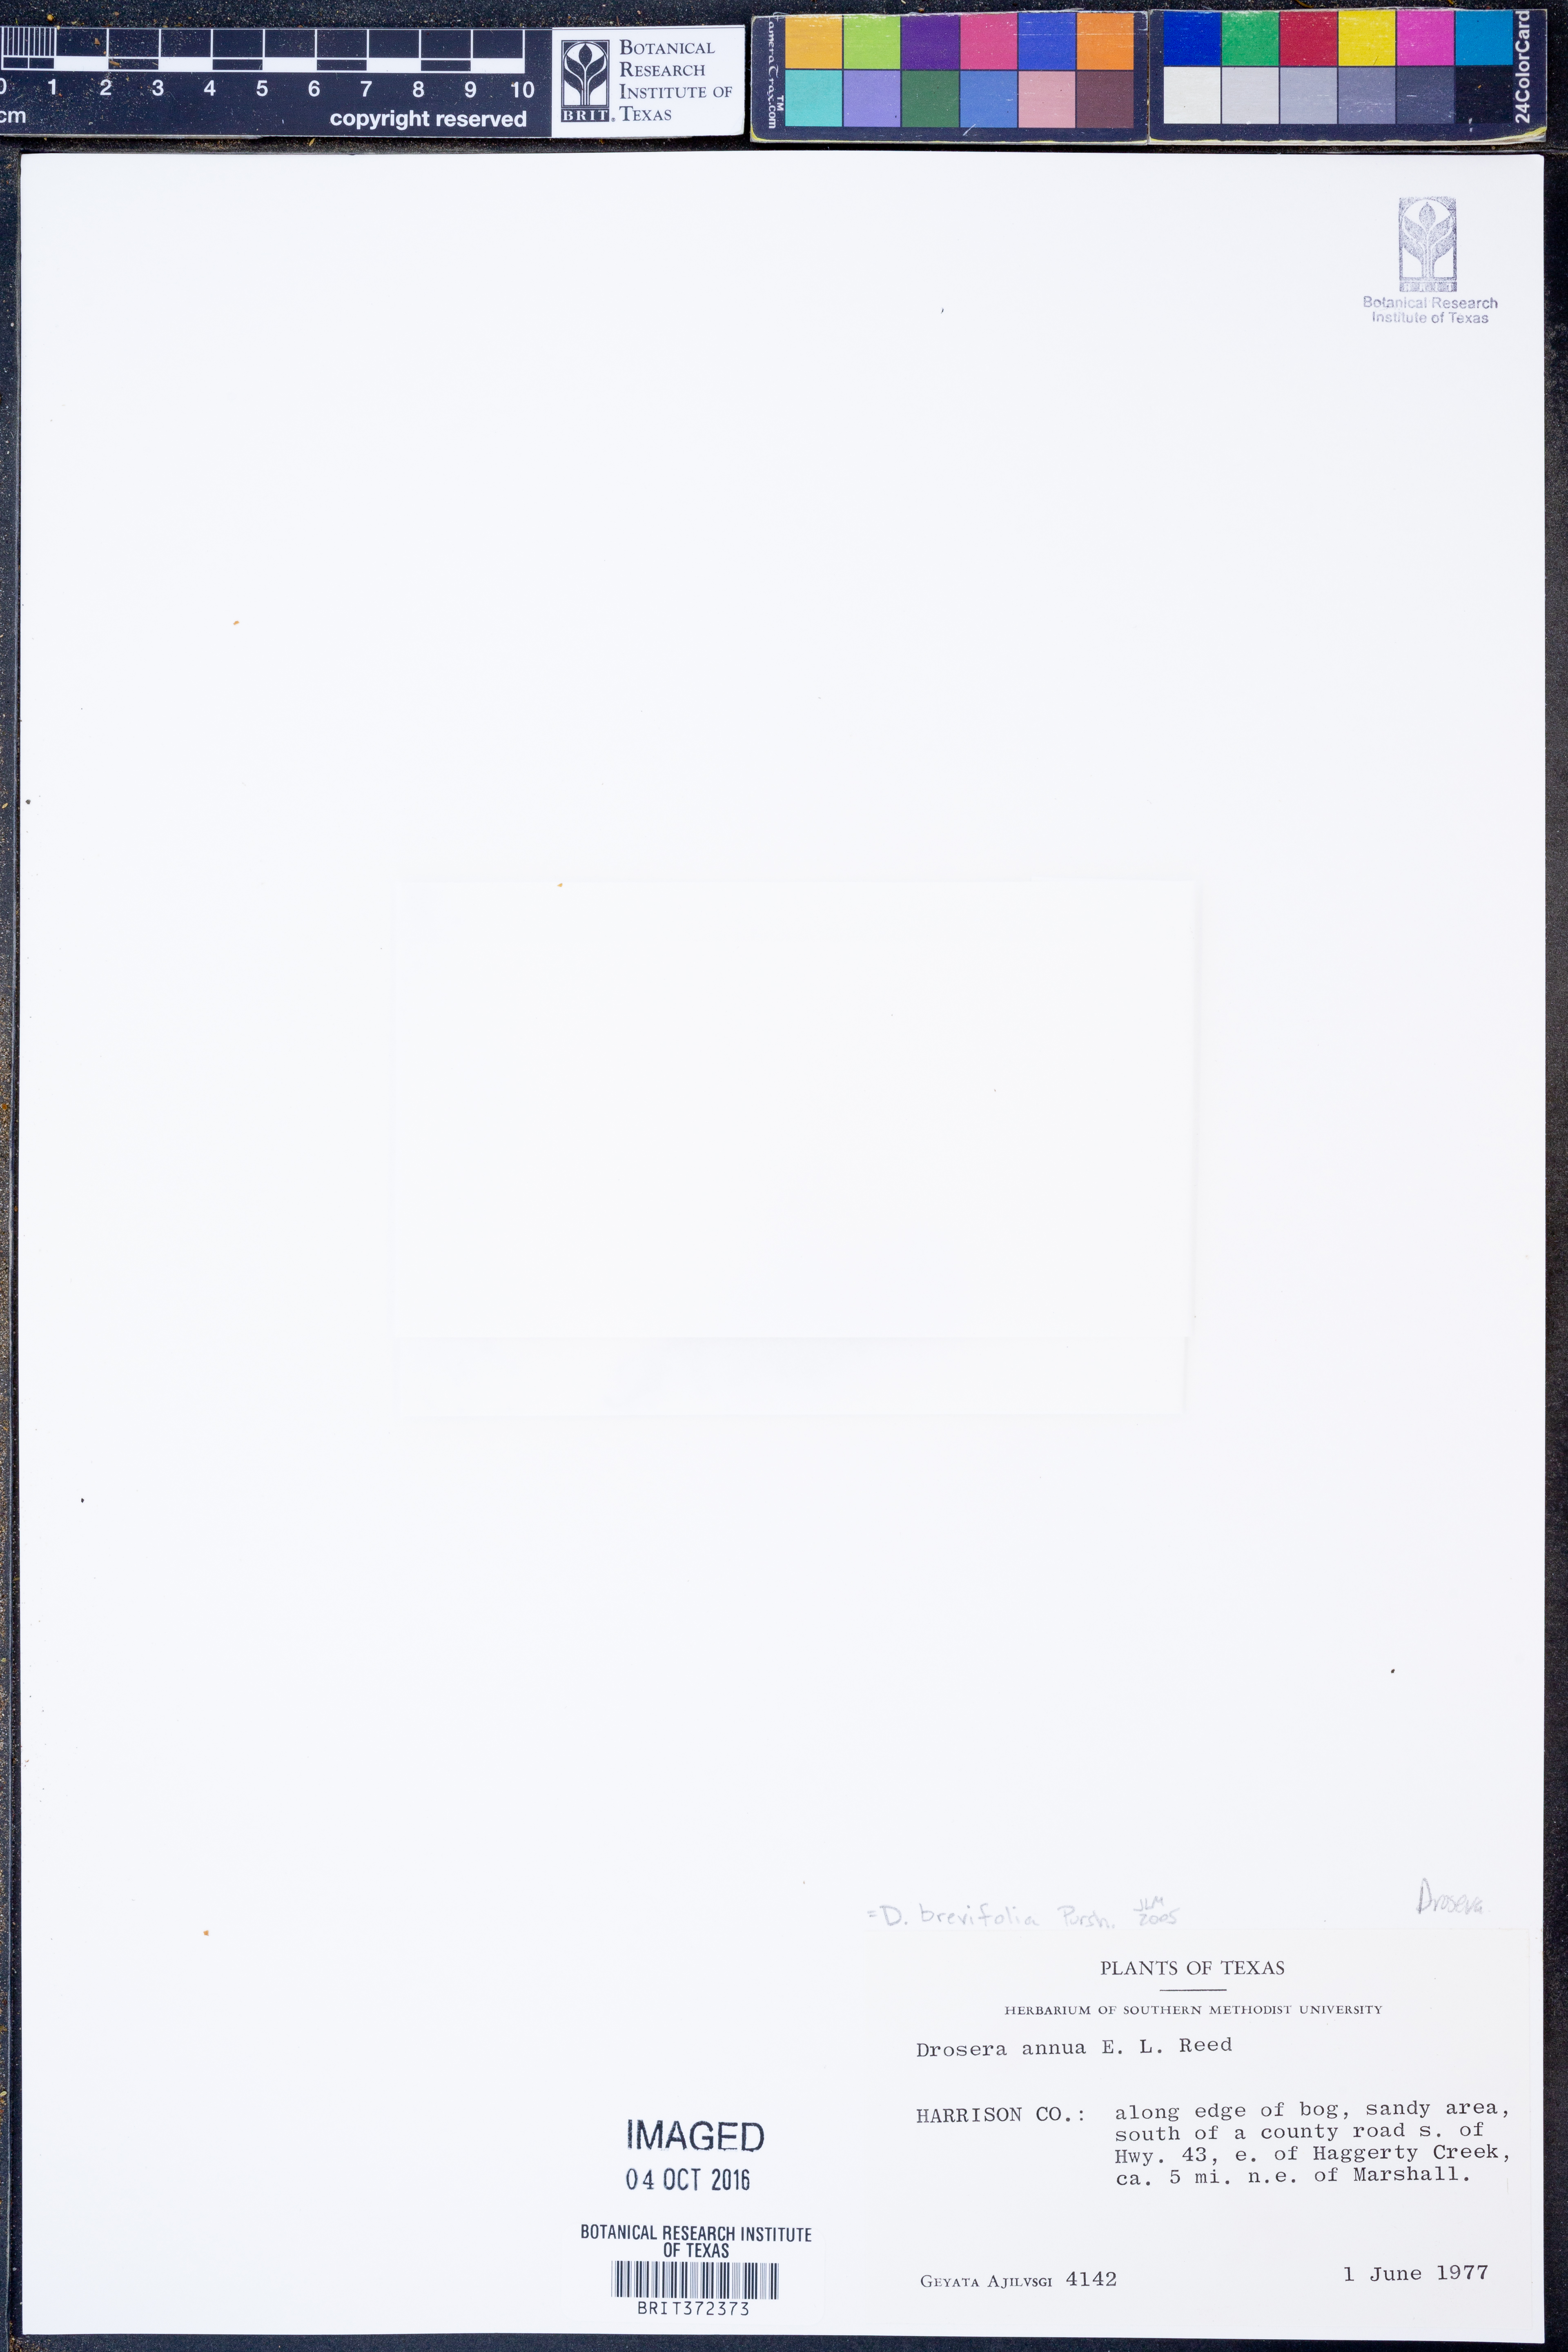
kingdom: Plantae
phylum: Tracheophyta
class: Magnoliopsida
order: Caryophyllales
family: Droseraceae
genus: Drosera
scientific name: Drosera brevifolia
